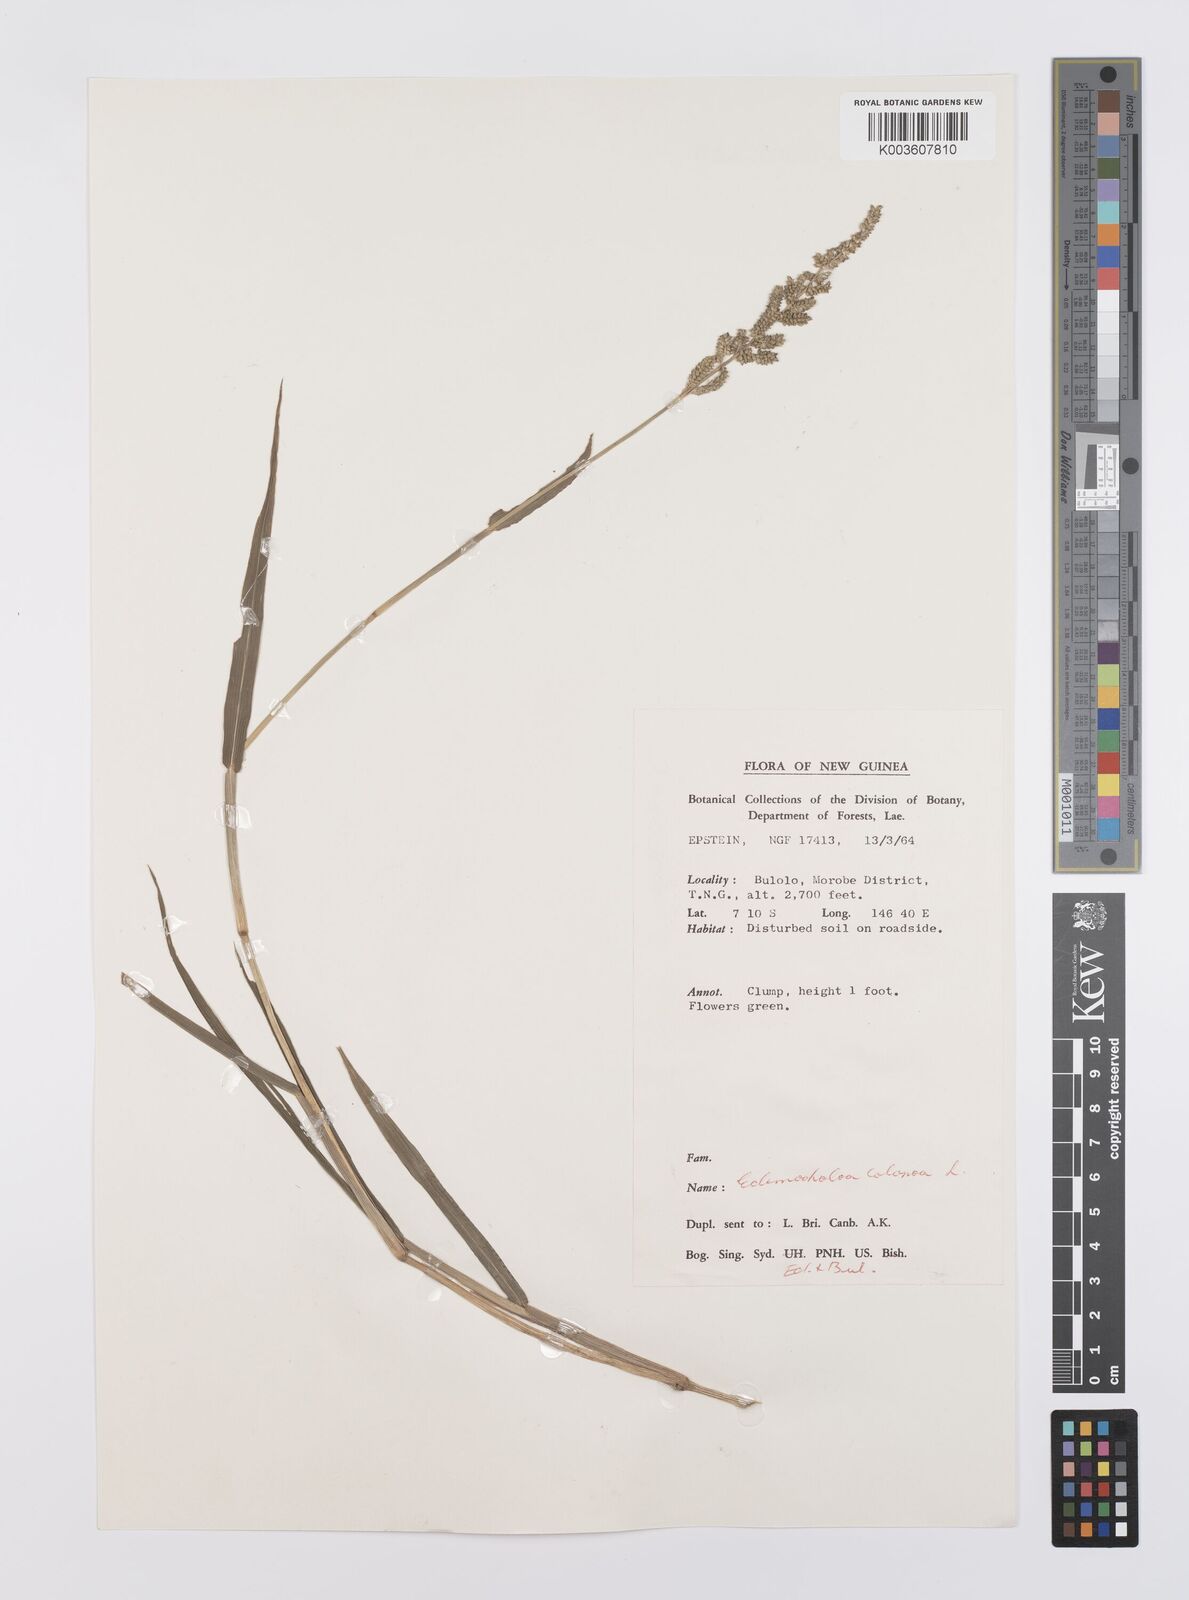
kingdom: Plantae
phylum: Tracheophyta
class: Liliopsida
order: Poales
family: Poaceae
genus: Echinochloa
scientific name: Echinochloa colonum
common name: Jungle rice
